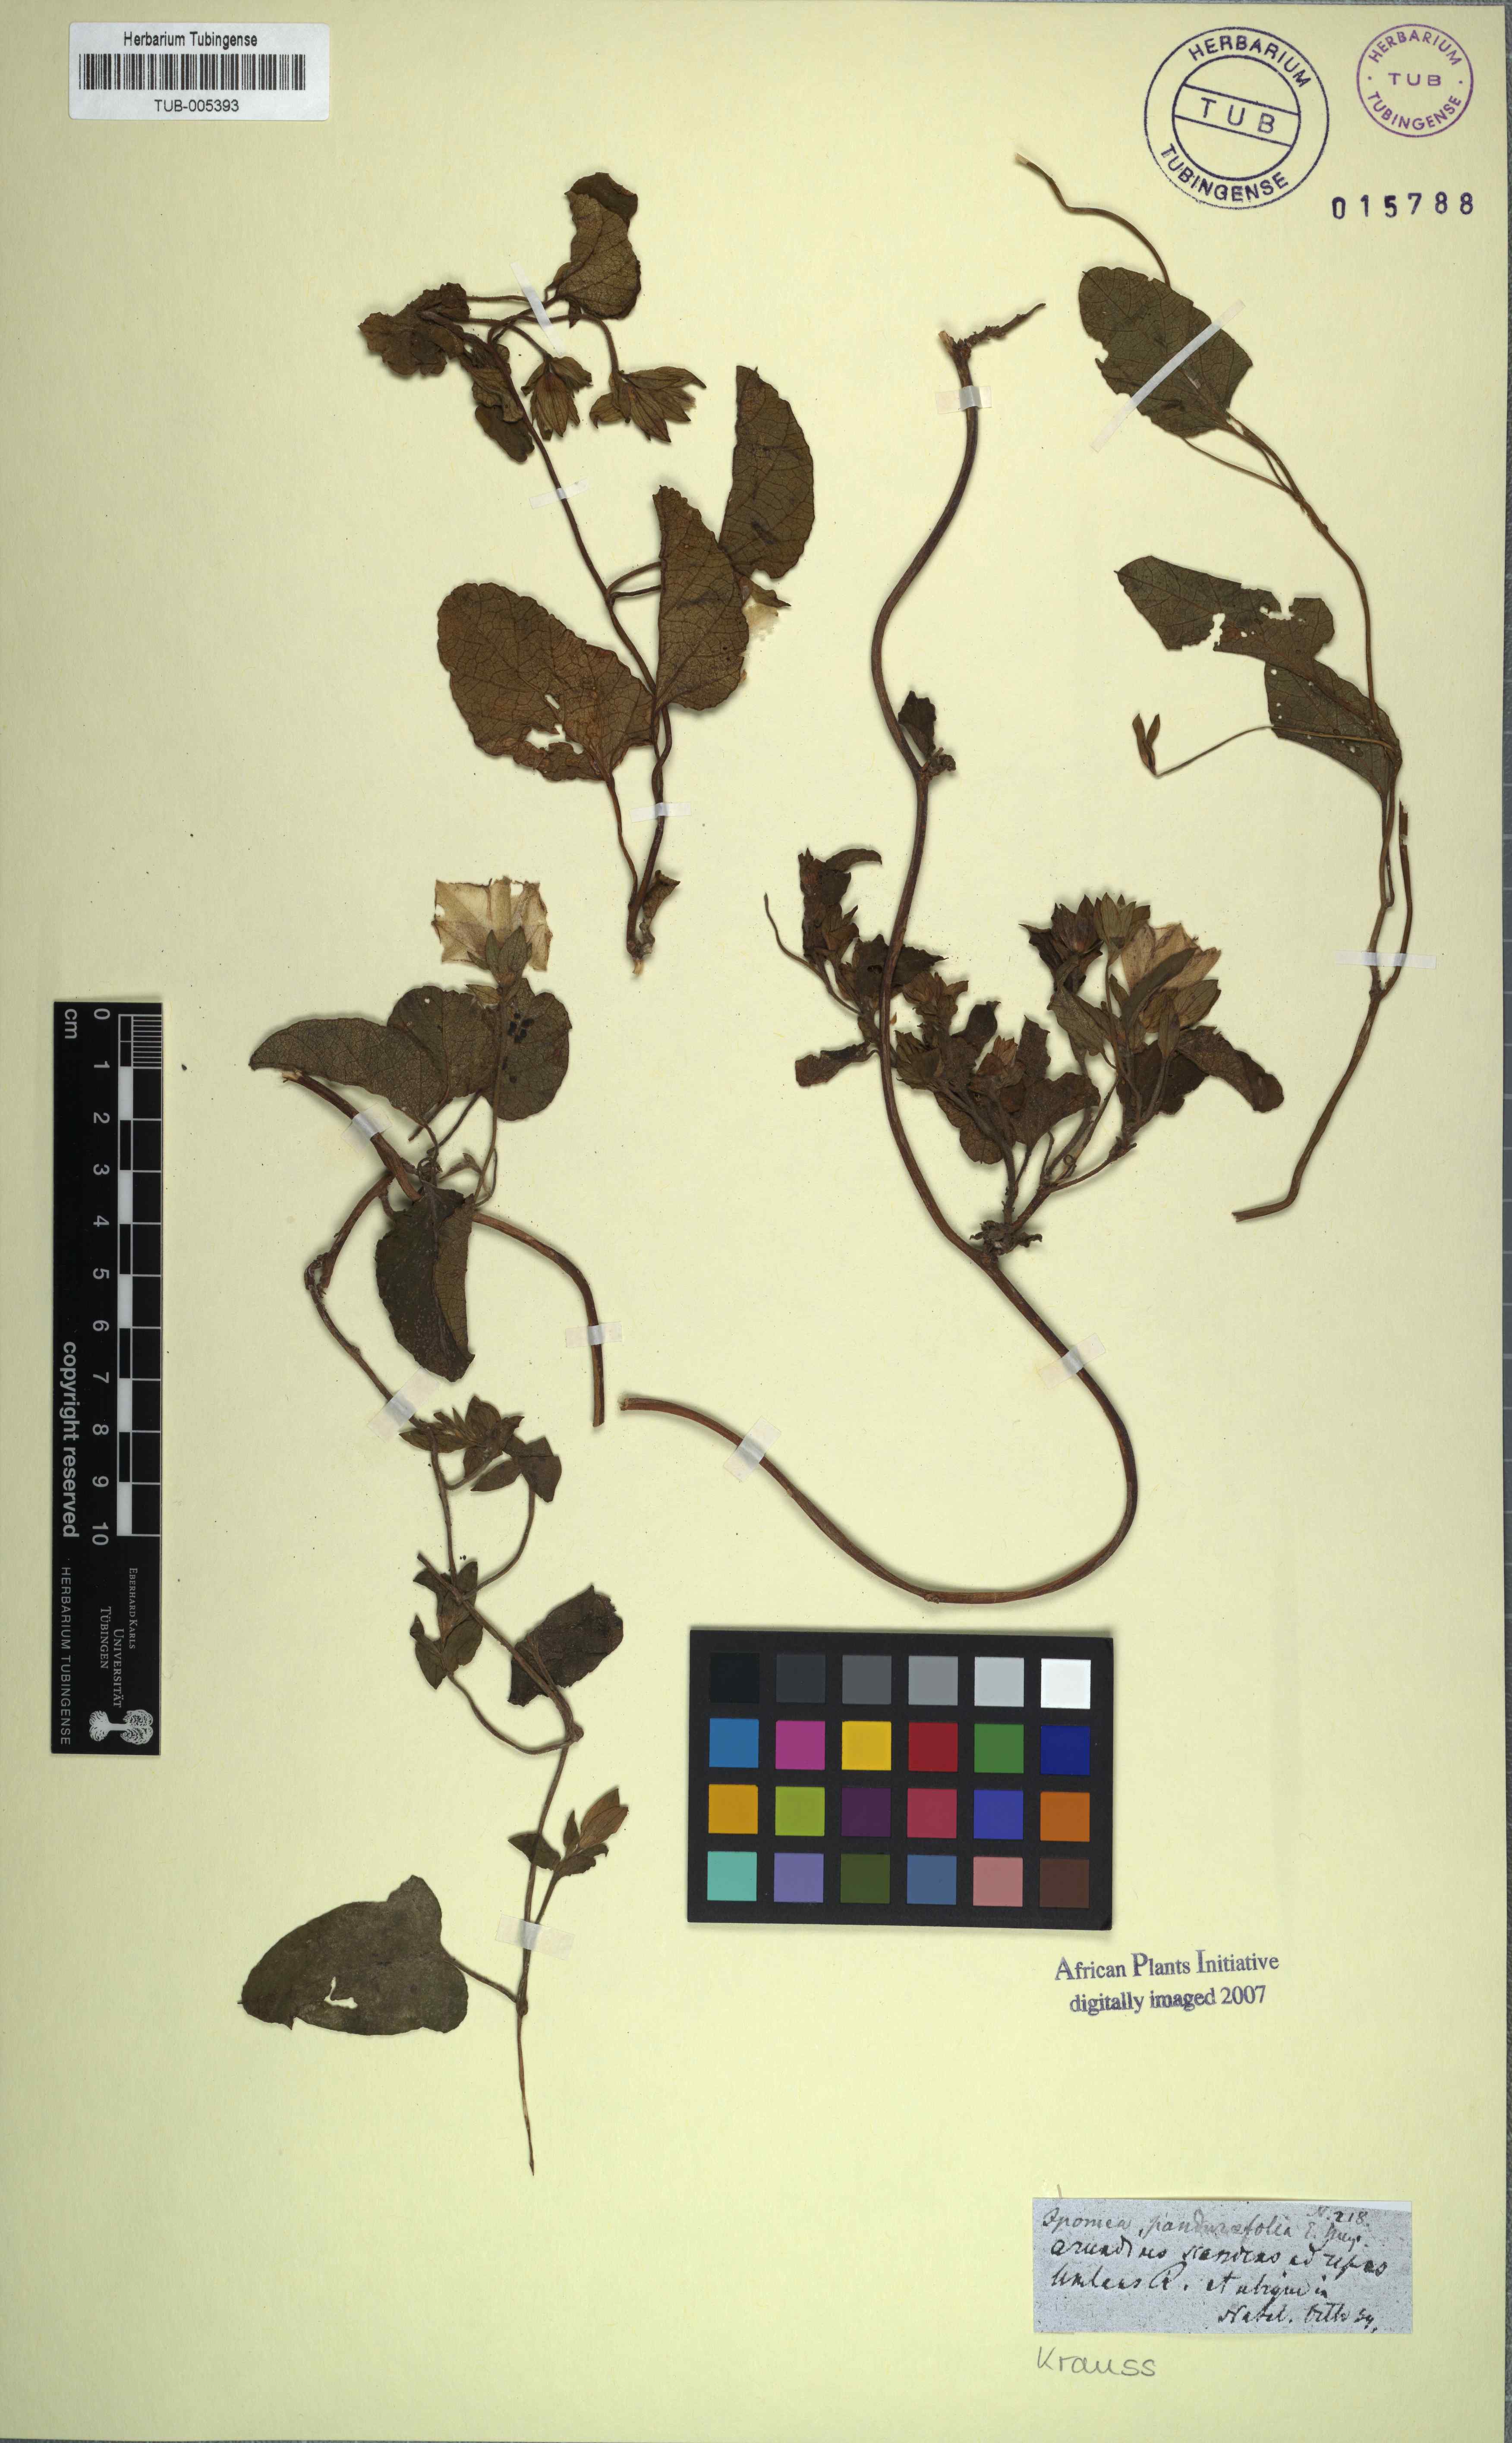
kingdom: Plantae
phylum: Tracheophyta
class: Magnoliopsida
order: Solanales
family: Convolvulaceae
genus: Hewittia
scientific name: Hewittia malabarica
